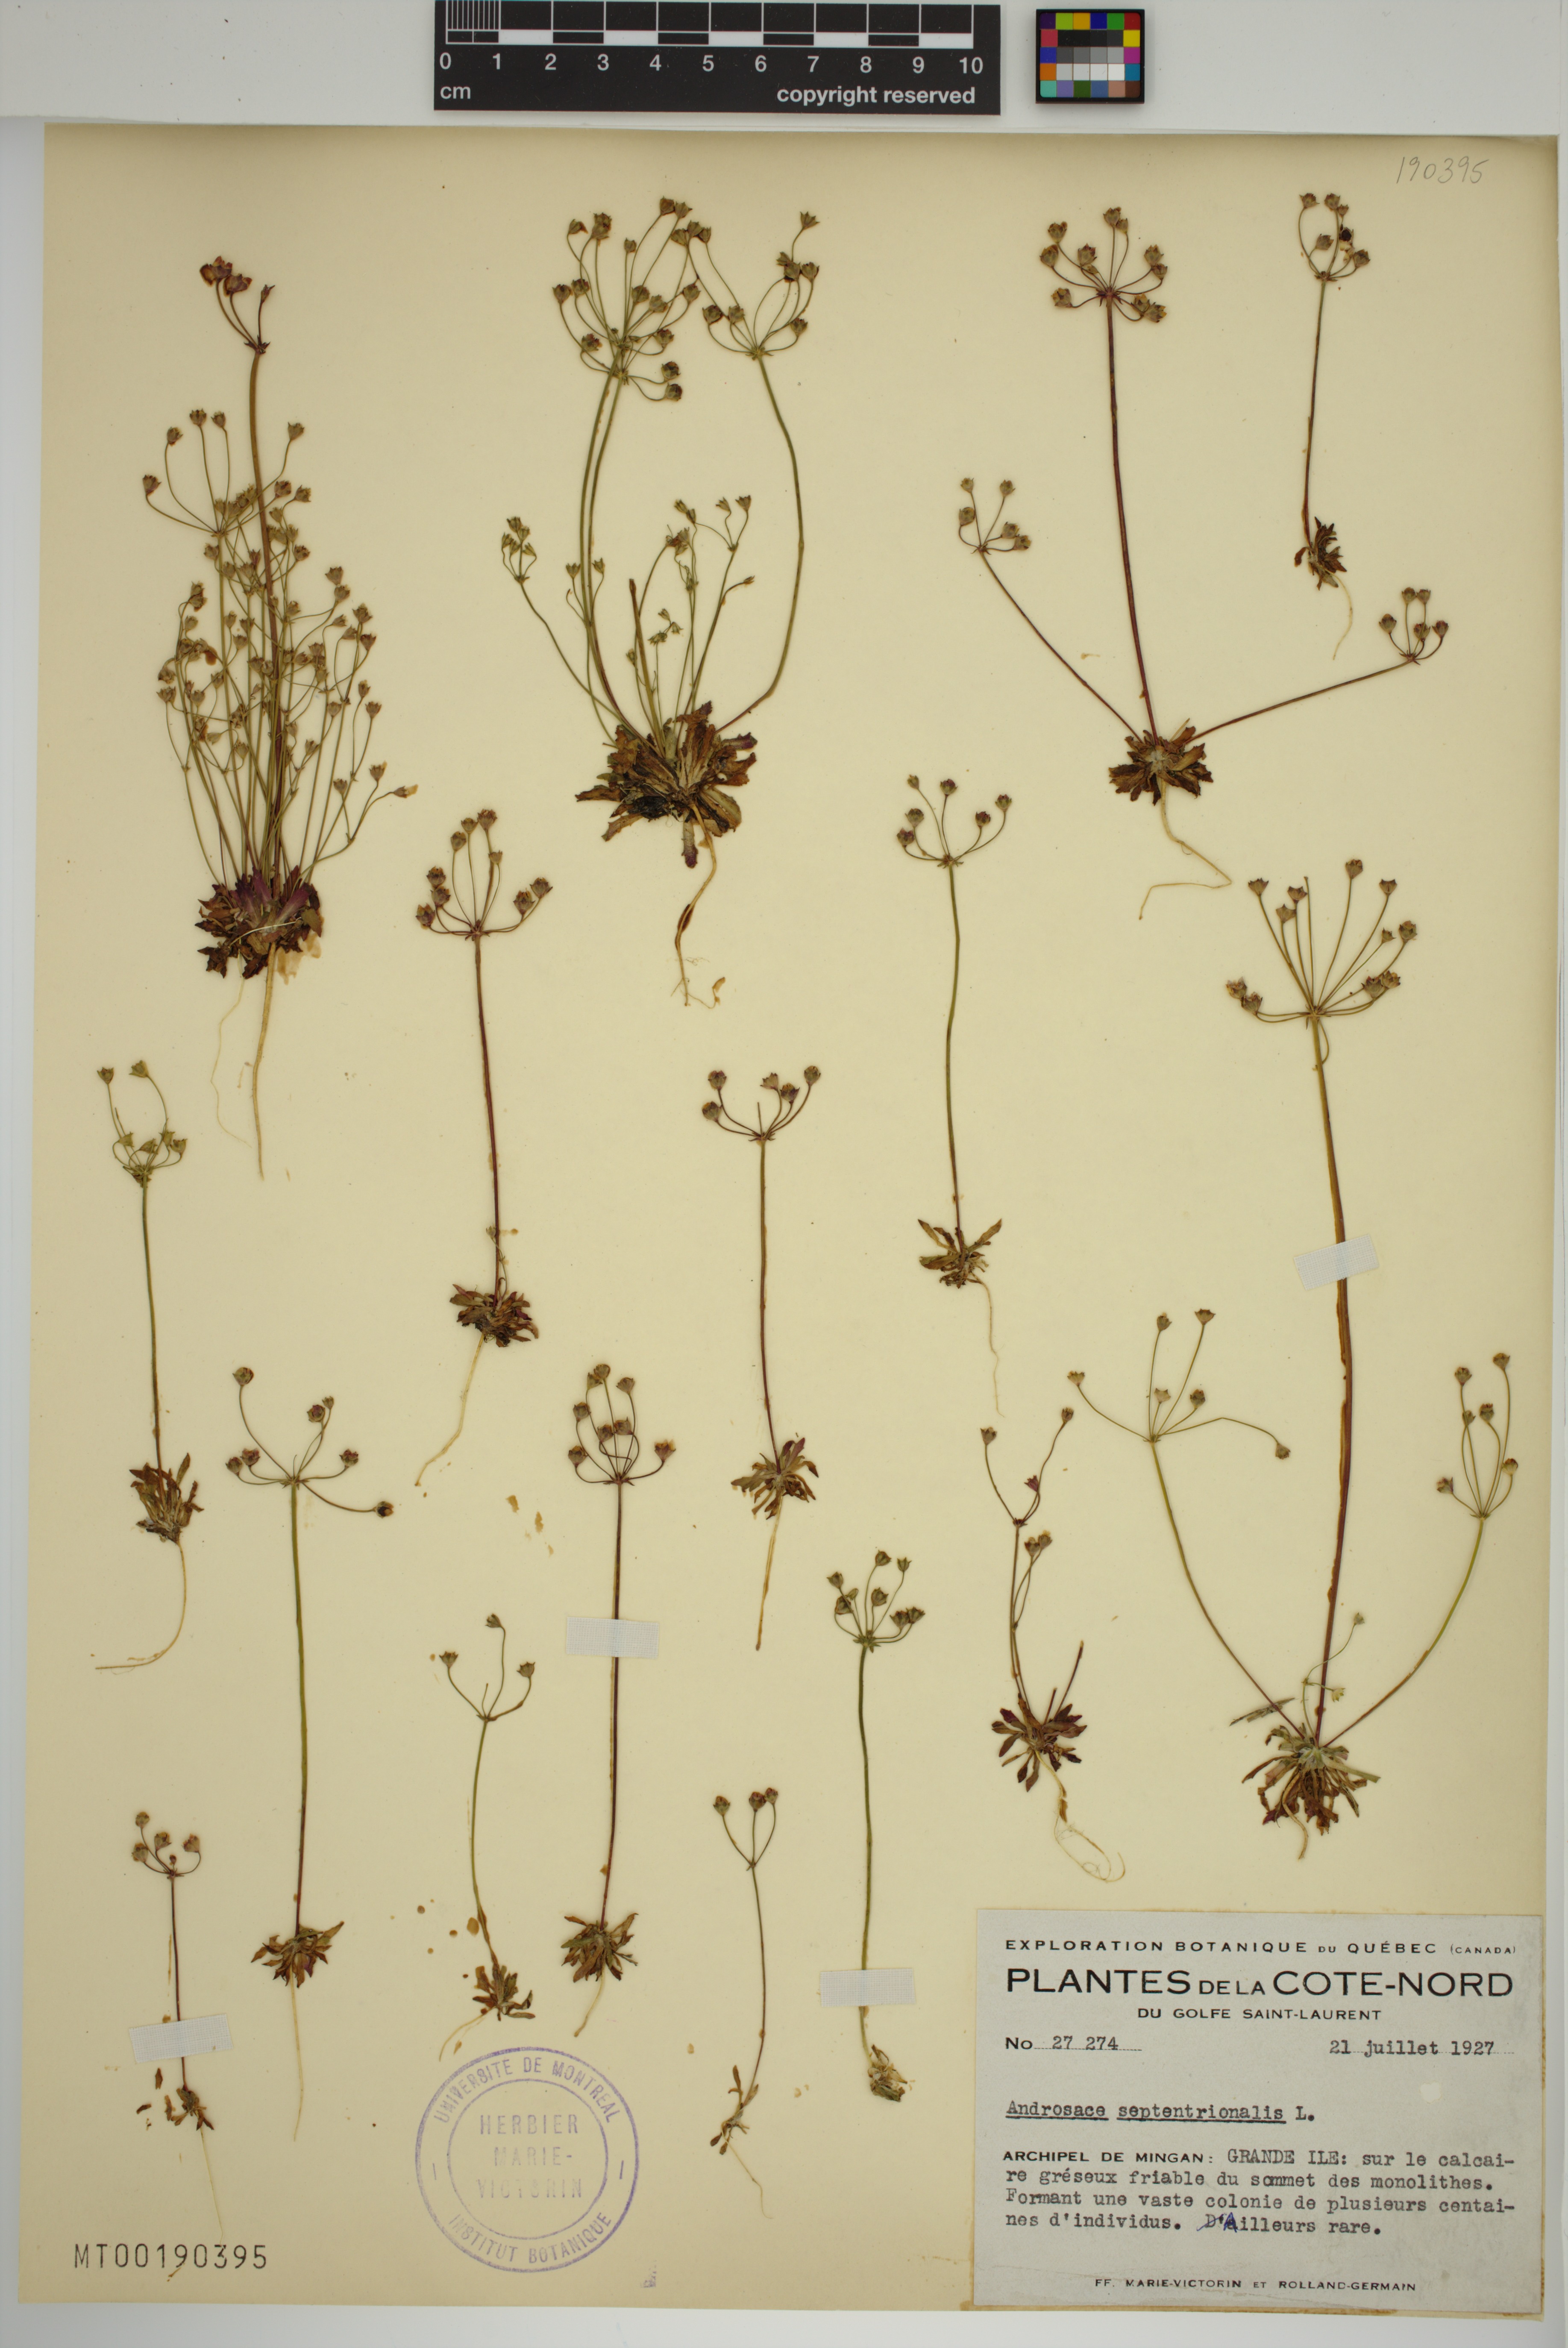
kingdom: Plantae
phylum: Tracheophyta
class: Magnoliopsida
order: Ericales
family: Primulaceae
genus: Androsace
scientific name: Androsace septentrionalis
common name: Hairy northern fairy-candelabra
